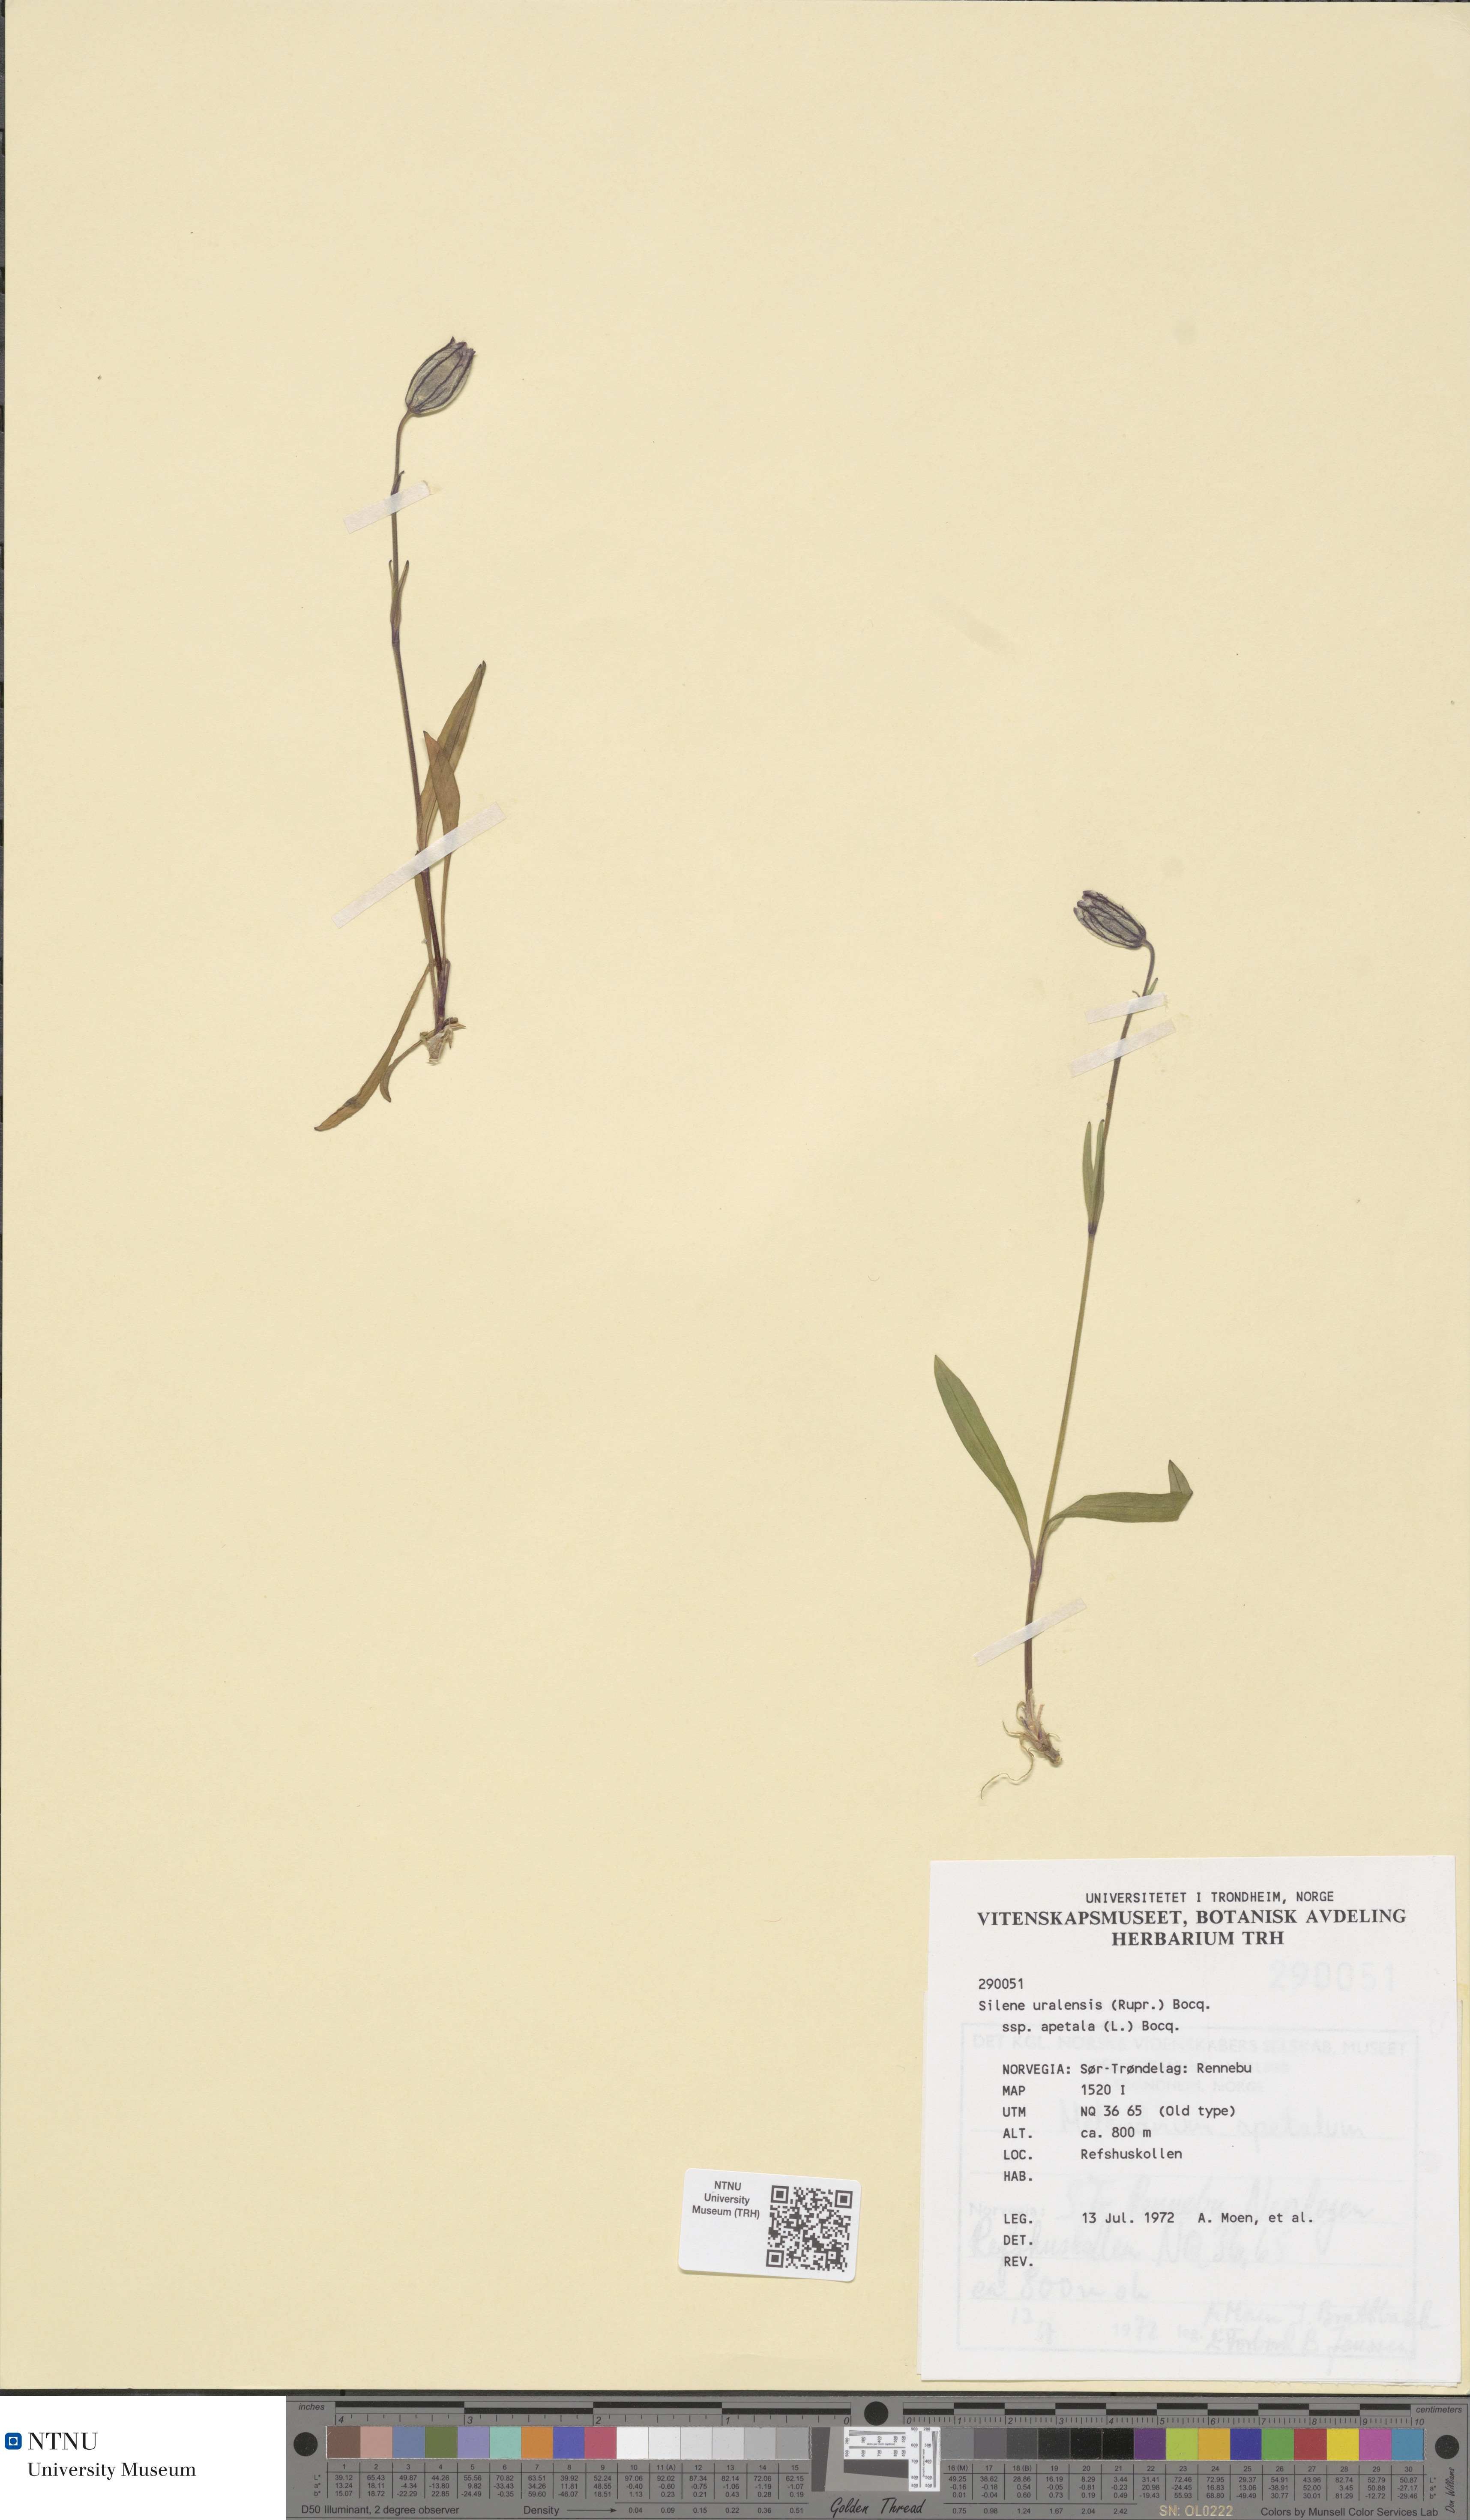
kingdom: Plantae
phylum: Tracheophyta
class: Magnoliopsida
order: Caryophyllales
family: Caryophyllaceae
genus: Silene
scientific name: Silene wahlbergella
